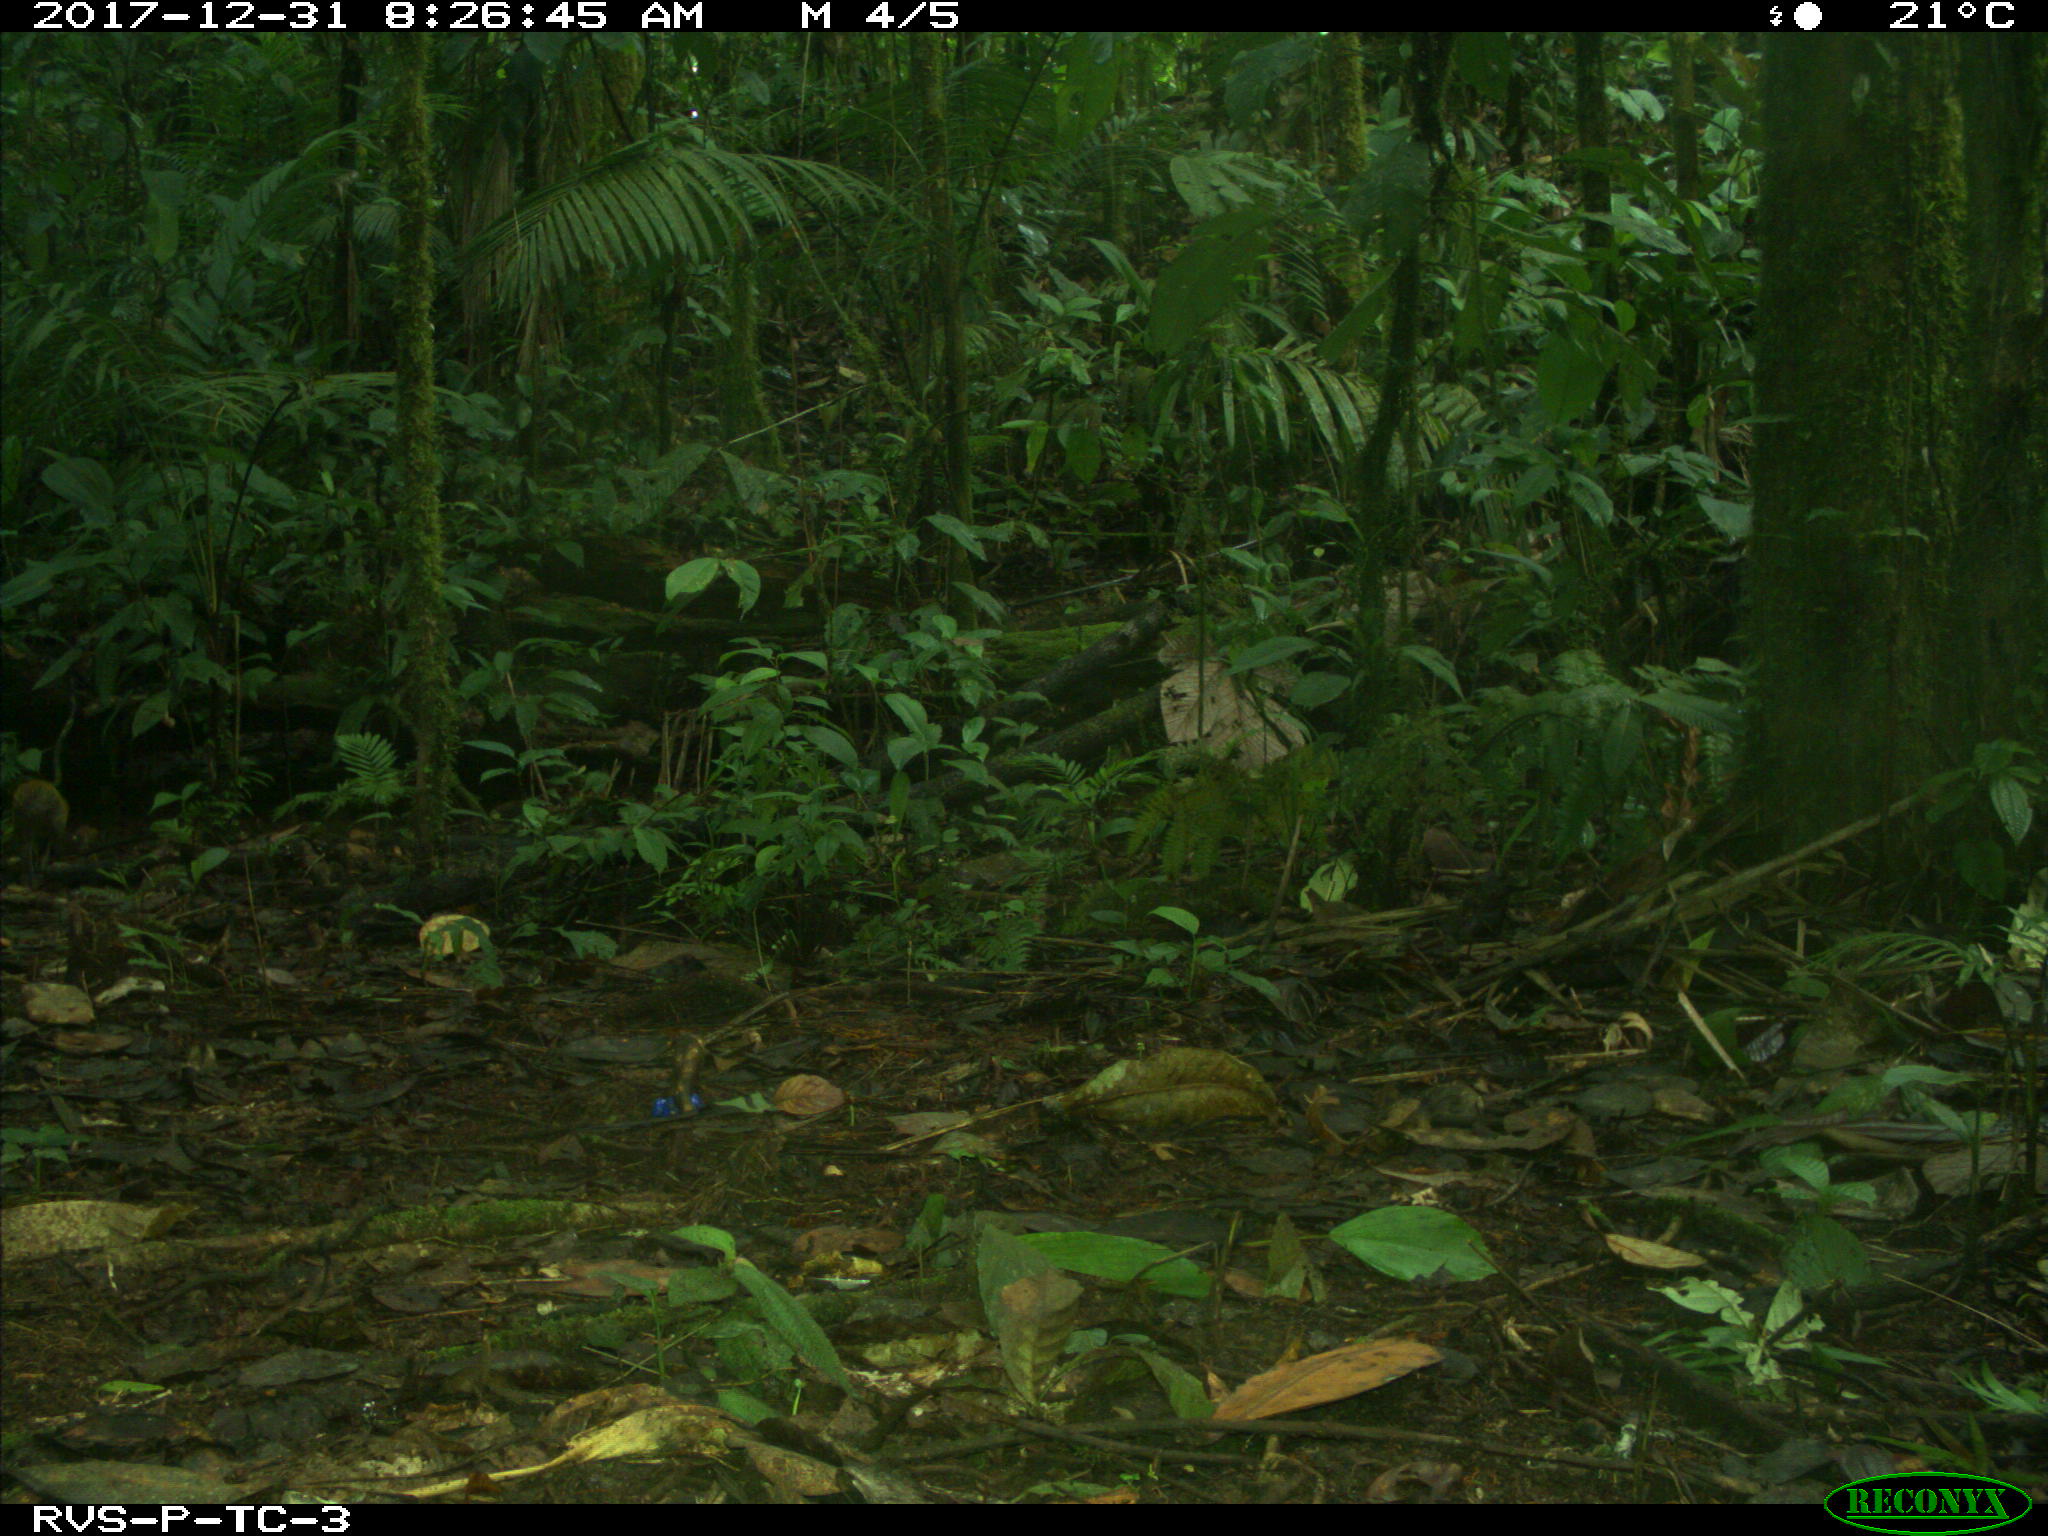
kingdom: Animalia
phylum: Chordata
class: Mammalia
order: Rodentia
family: Dasyproctidae
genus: Dasyprocta
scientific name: Dasyprocta punctata
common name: Central american agouti
